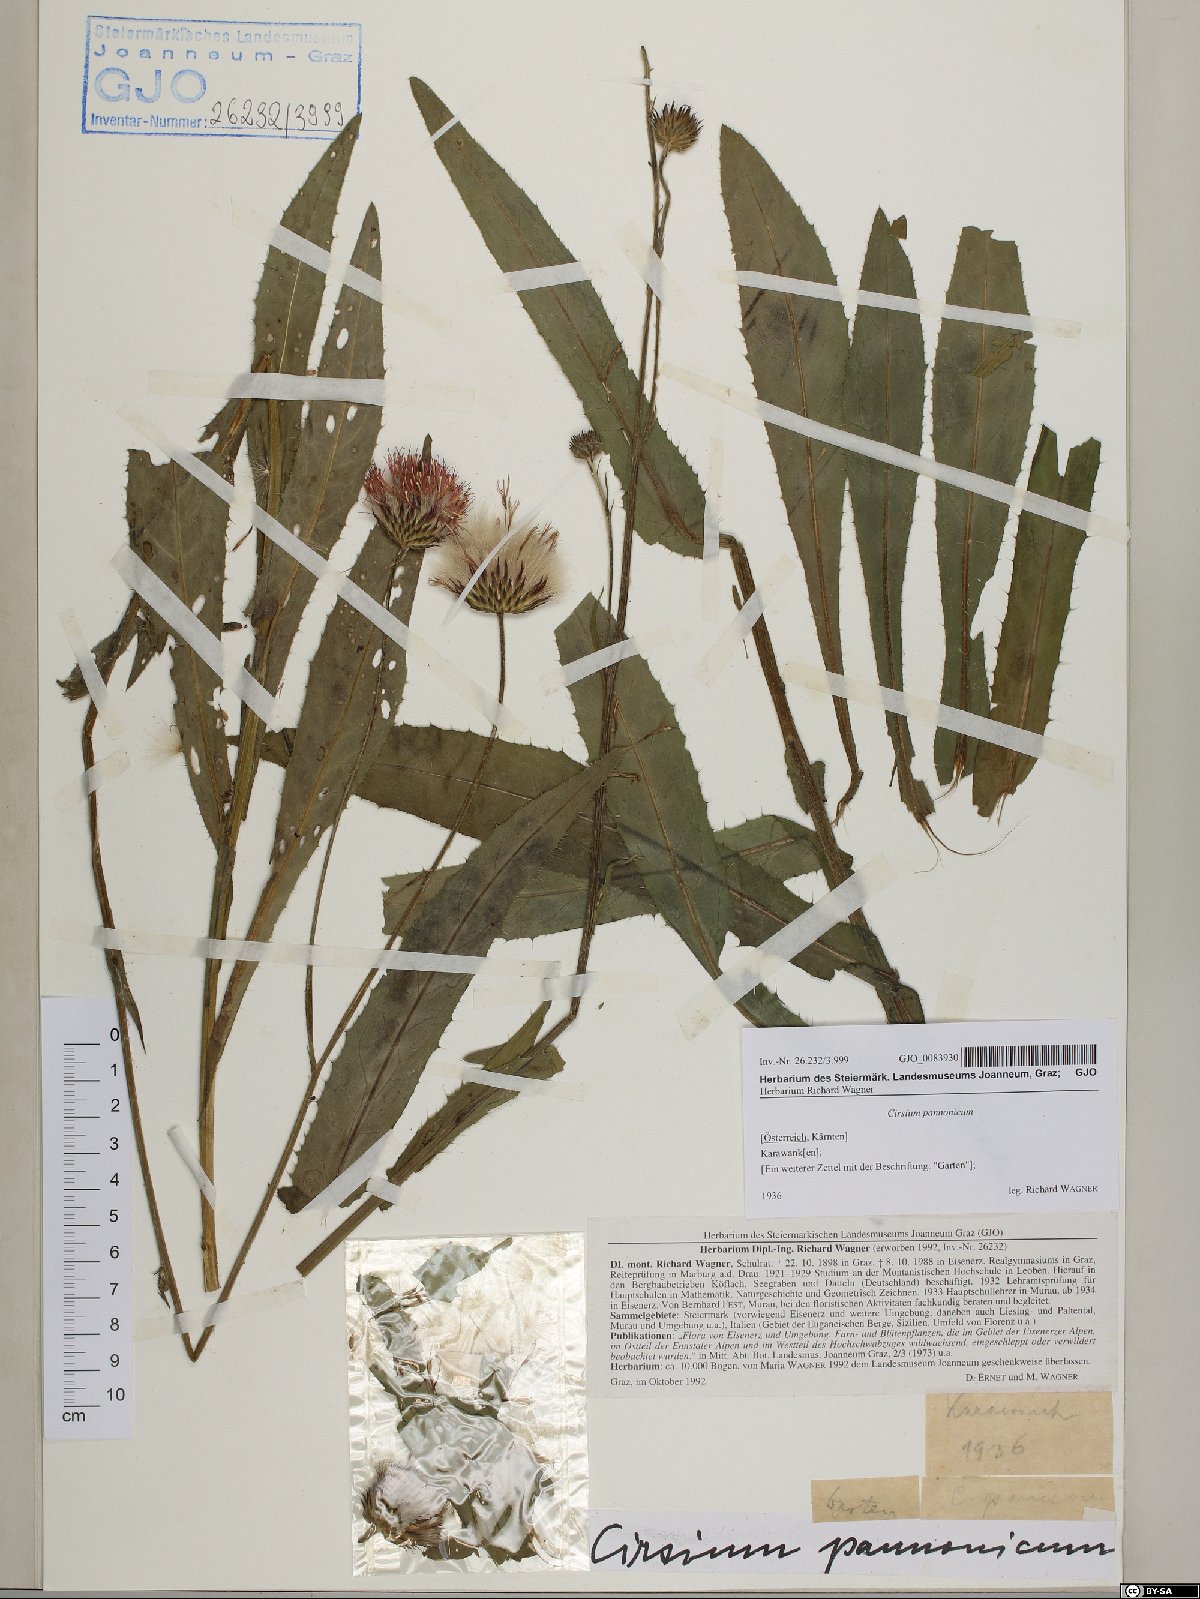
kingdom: Plantae
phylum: Tracheophyta
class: Magnoliopsida
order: Asterales
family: Asteraceae
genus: Cirsium
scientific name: Cirsium pannonicum
